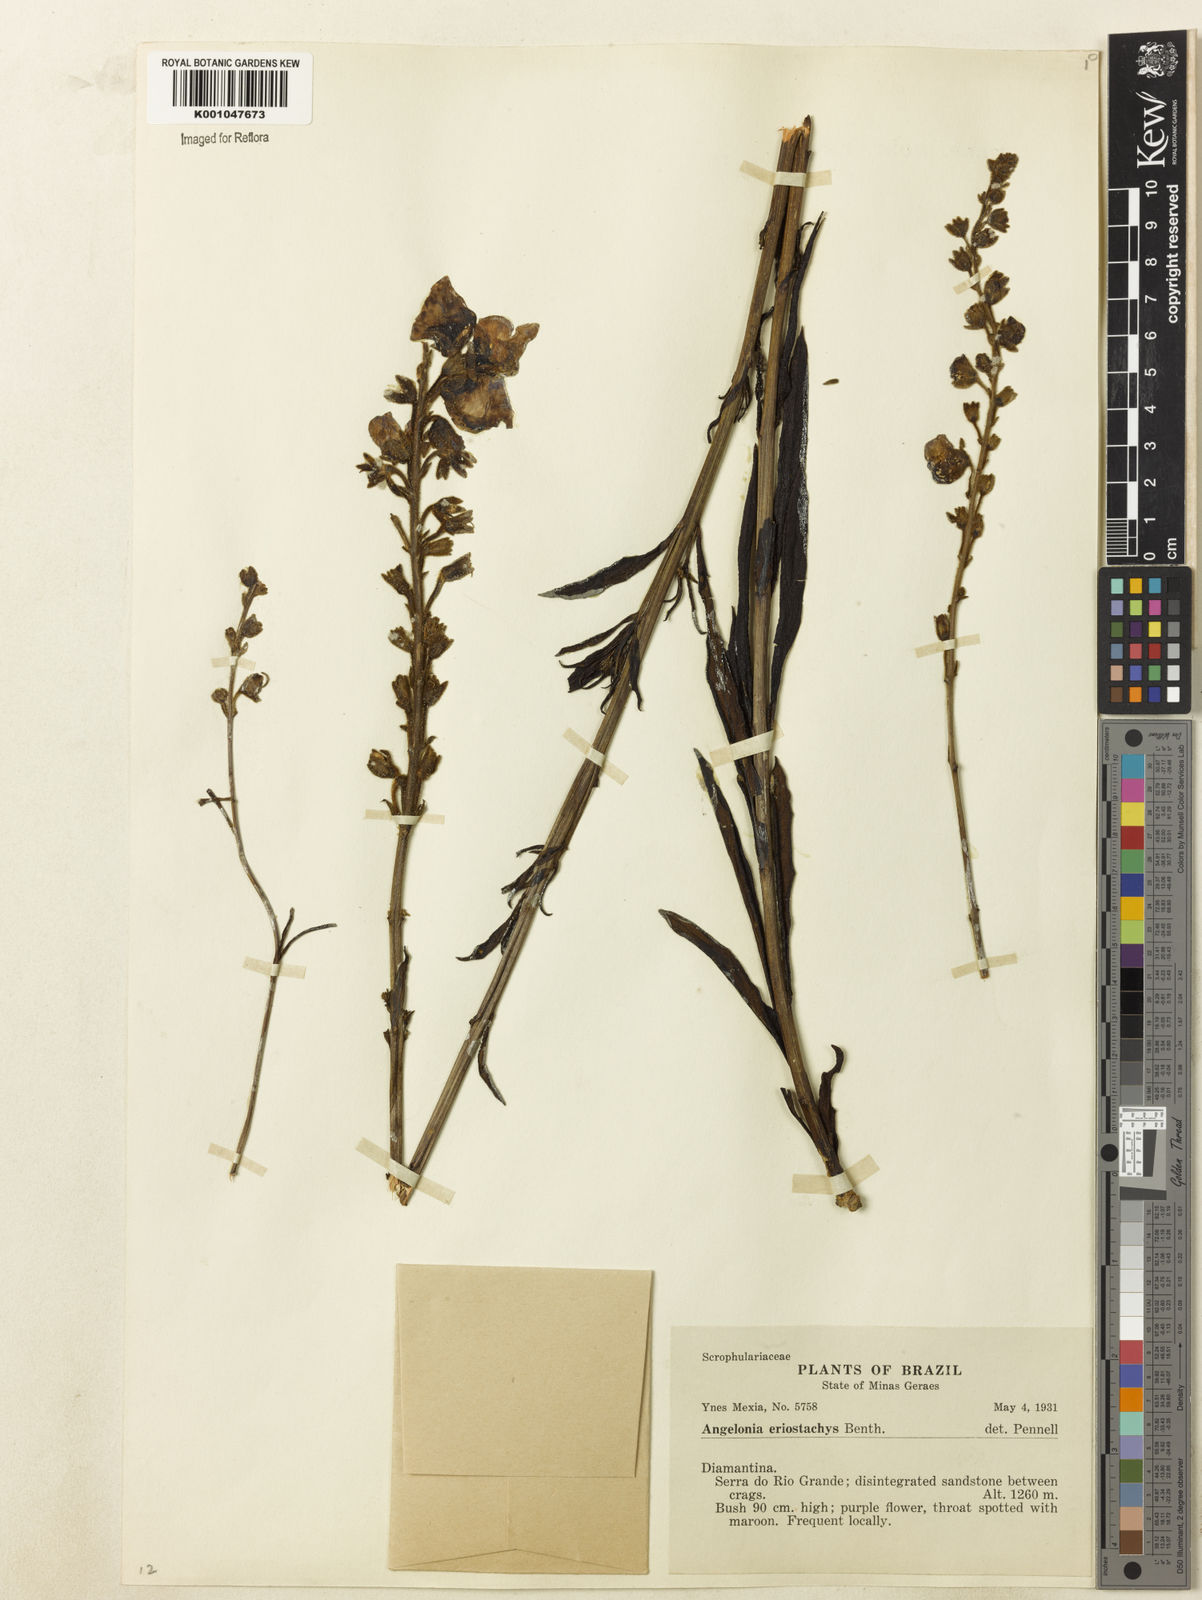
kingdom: Plantae
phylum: Tracheophyta
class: Magnoliopsida
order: Lamiales
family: Plantaginaceae
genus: Angelonia
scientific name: Angelonia eriostachys
